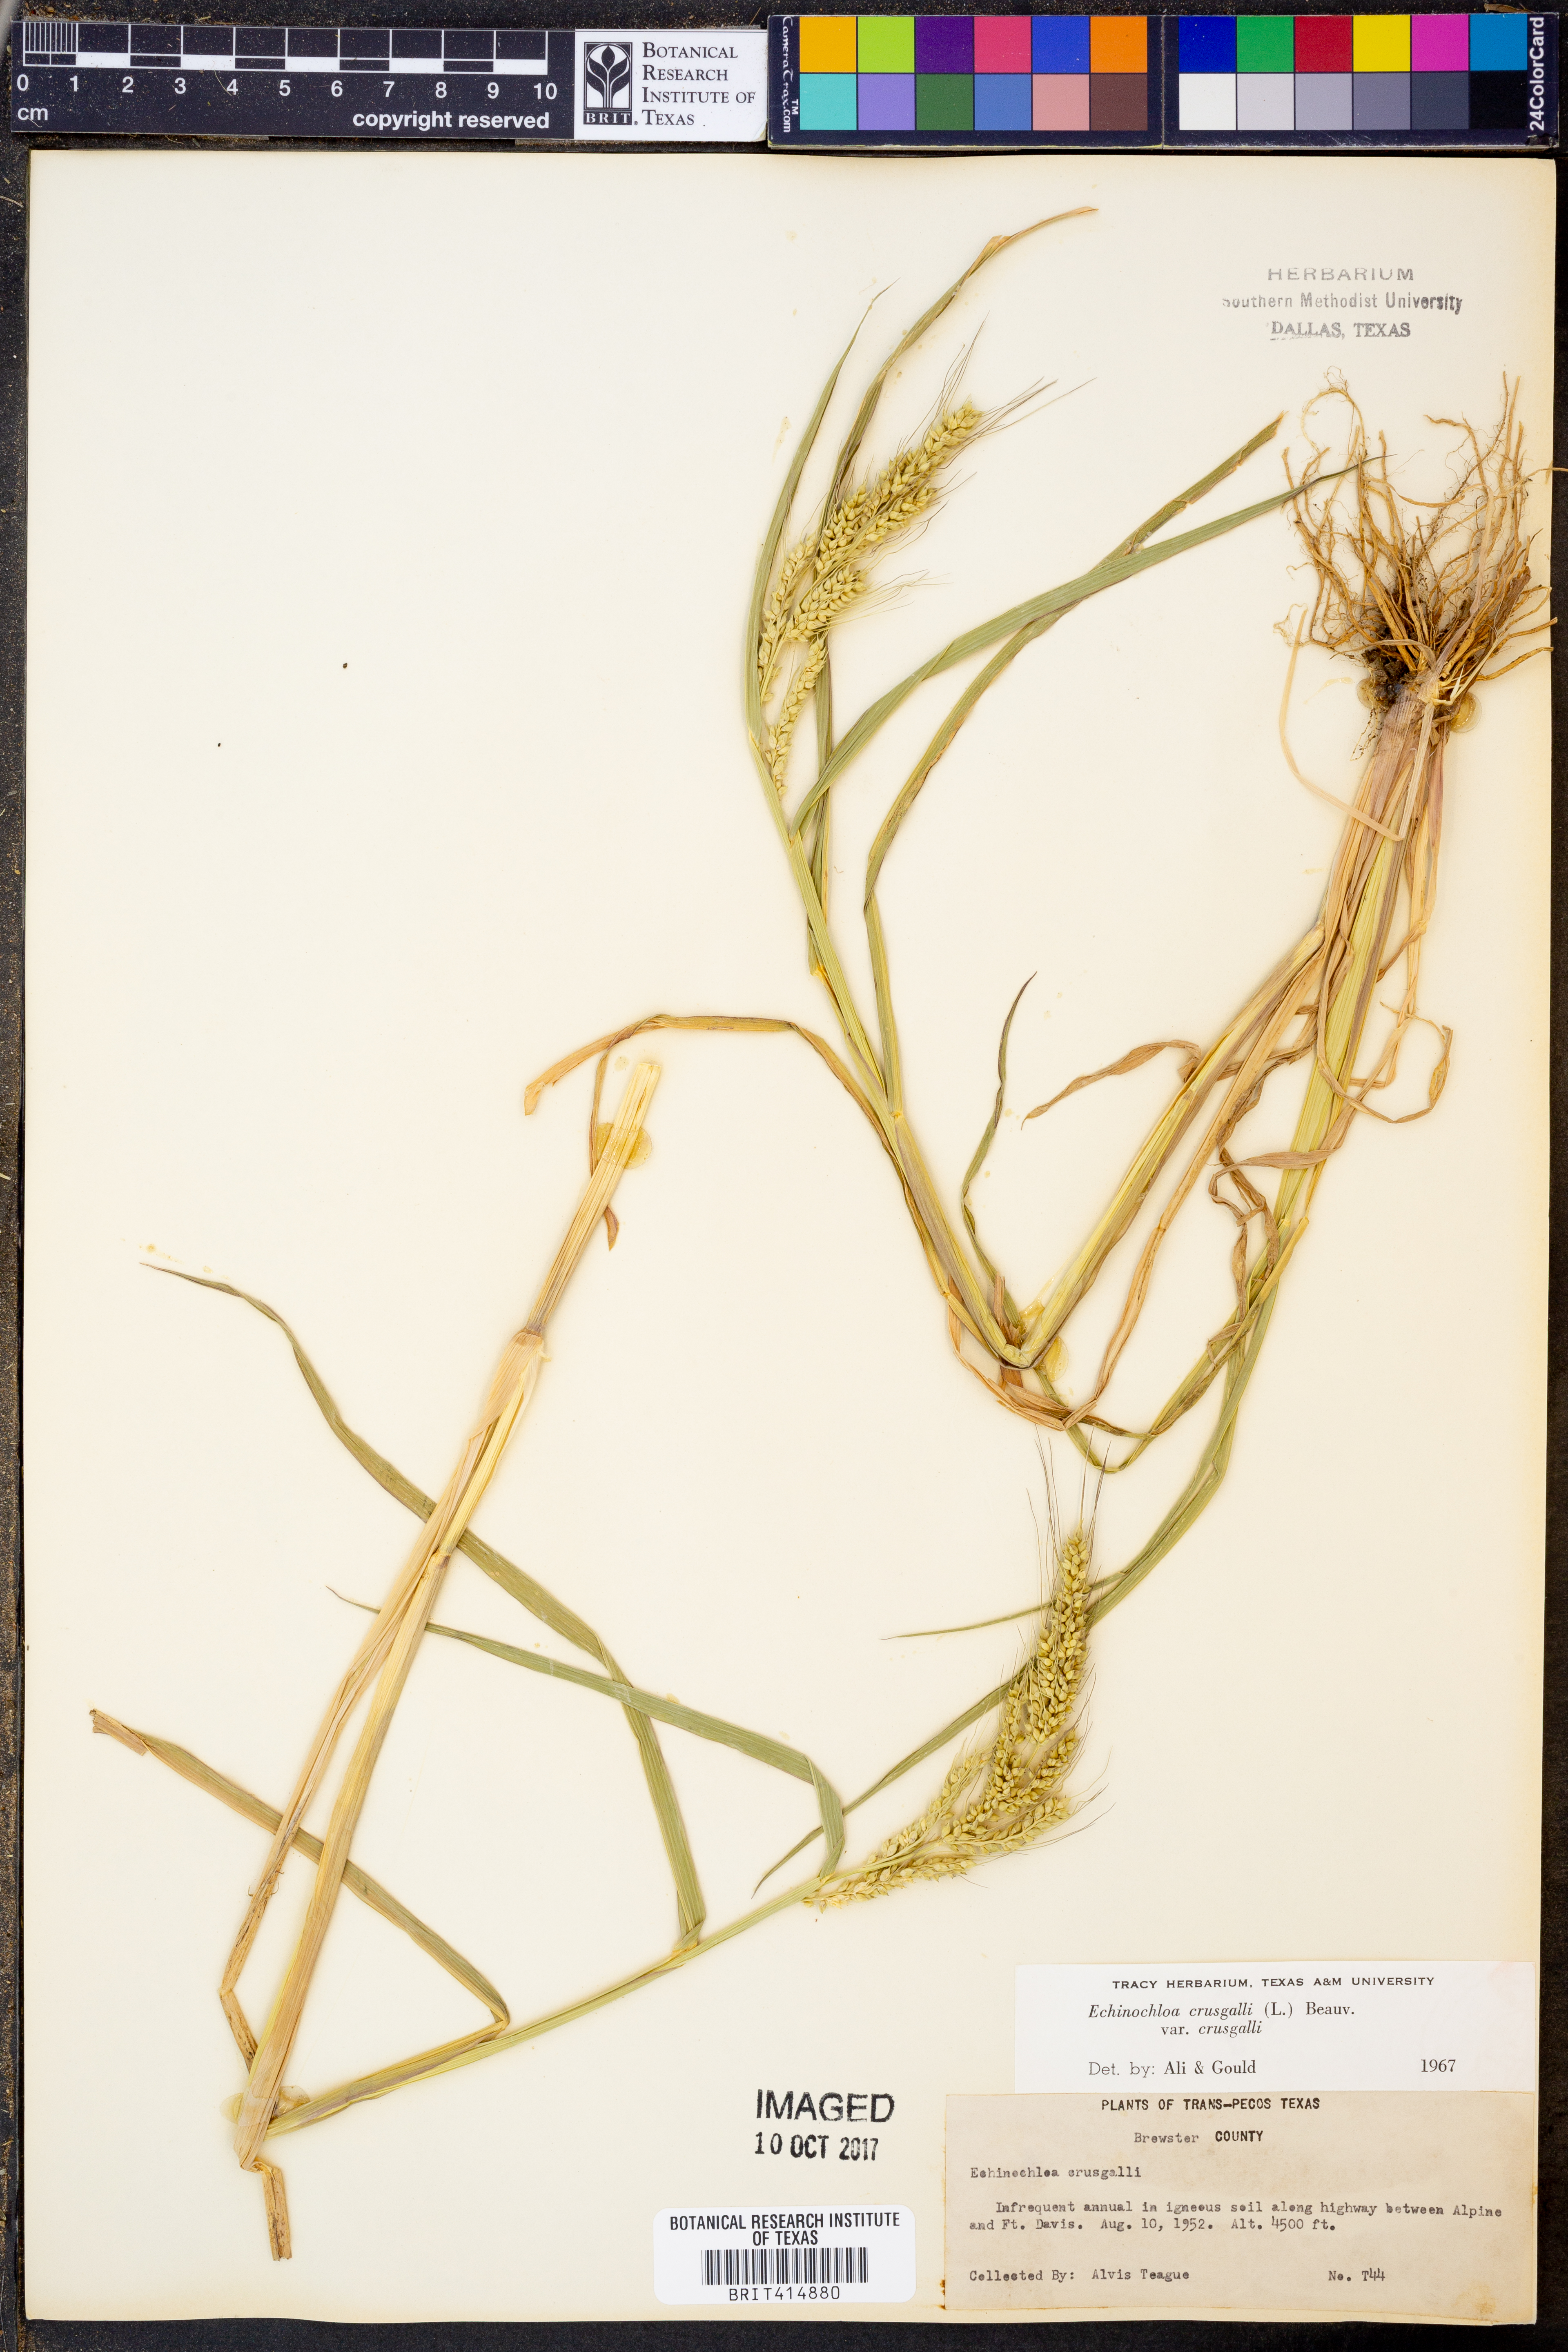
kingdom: Plantae
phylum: Tracheophyta
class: Liliopsida
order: Poales
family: Poaceae
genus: Echinochloa
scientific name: Echinochloa crus-galli
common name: Cockspur
